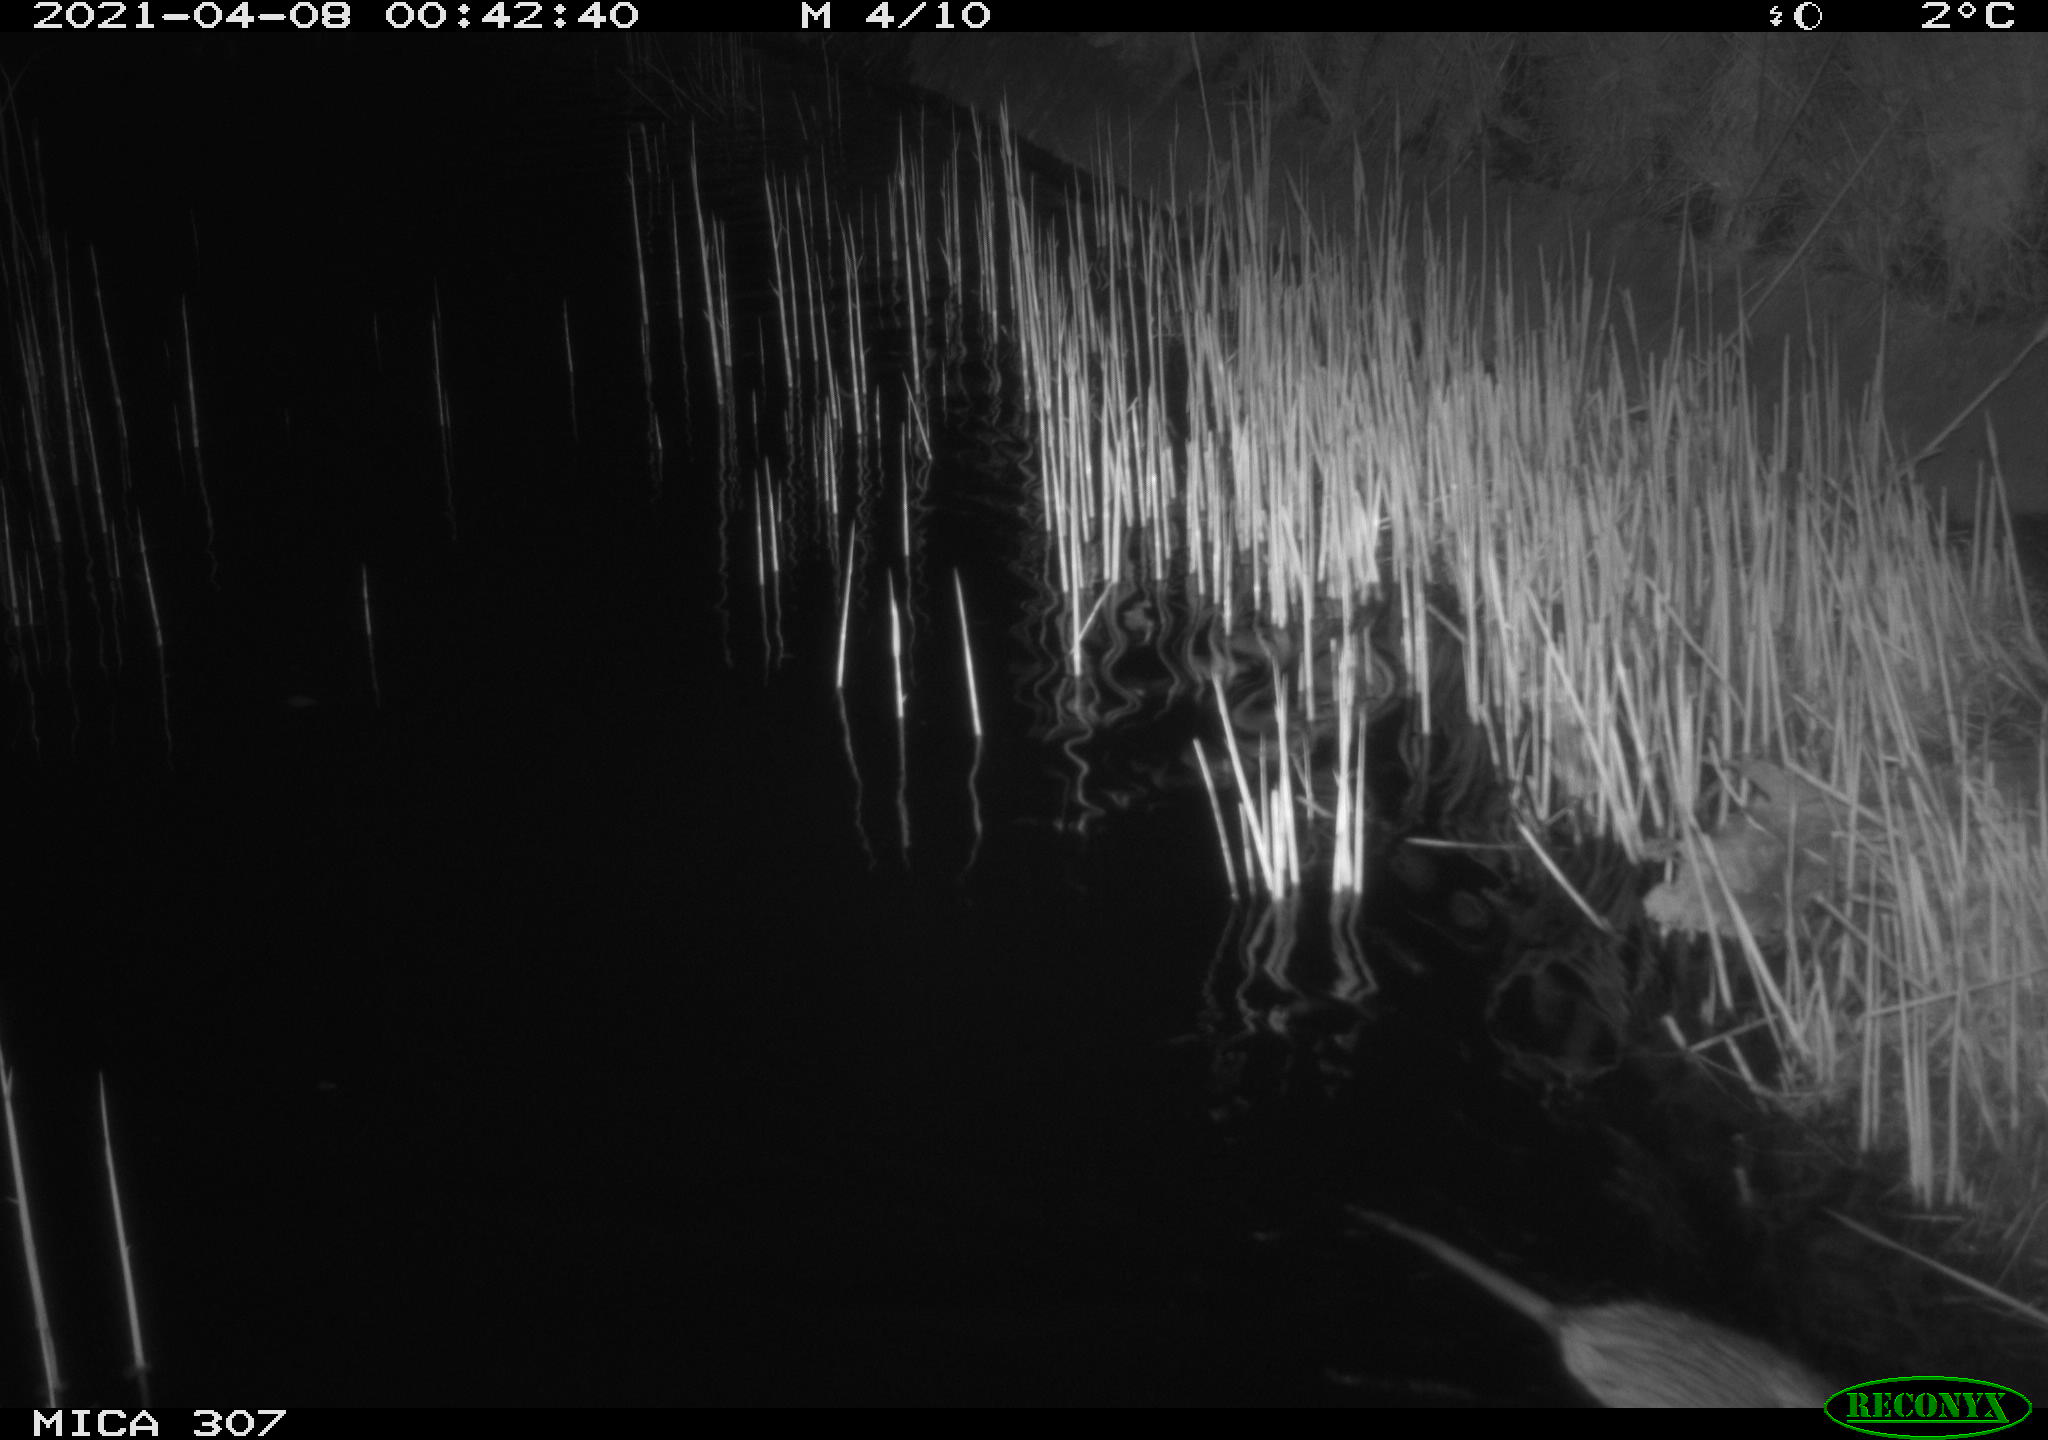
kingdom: Animalia
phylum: Chordata
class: Mammalia
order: Rodentia
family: Cricetidae
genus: Ondatra
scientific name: Ondatra zibethicus
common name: Muskrat
